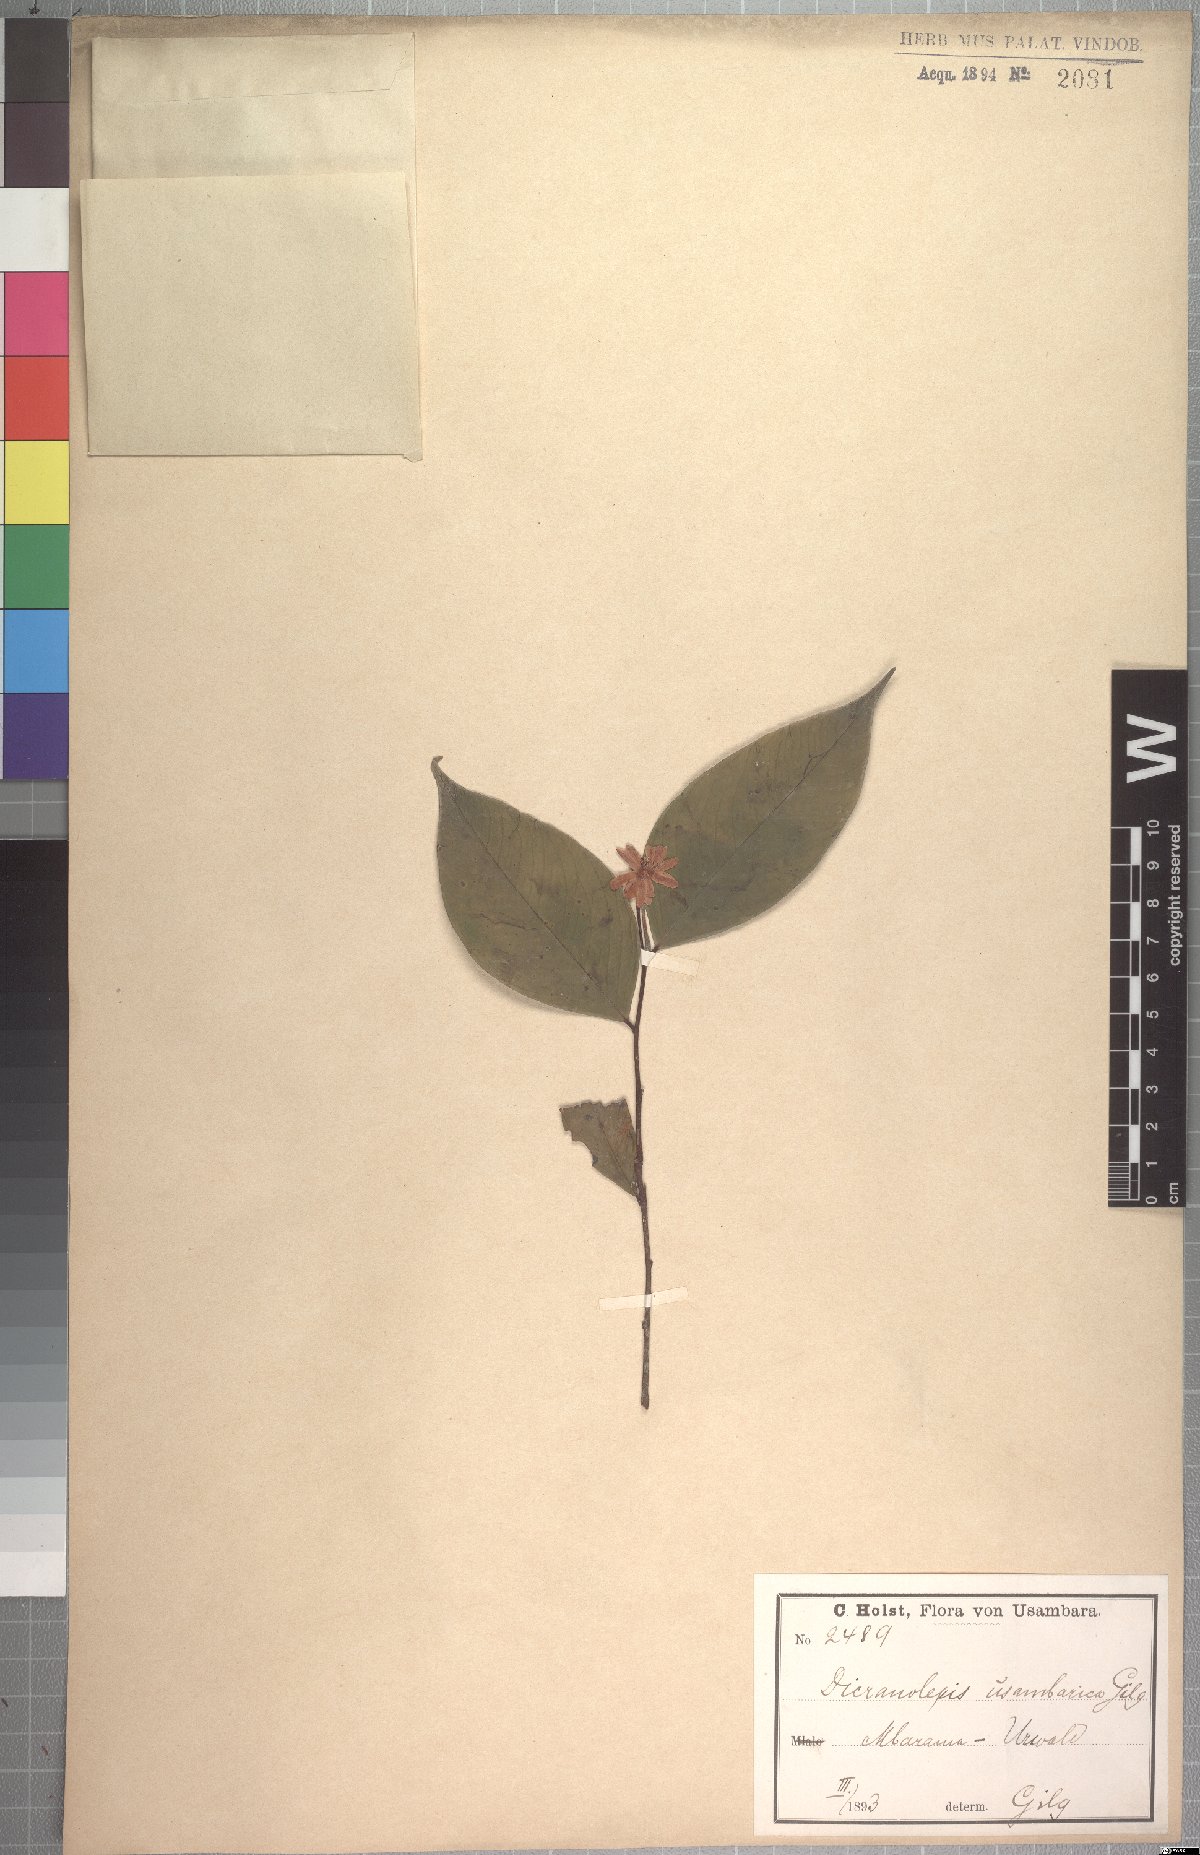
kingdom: Plantae
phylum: Tracheophyta
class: Magnoliopsida
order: Malvales
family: Thymelaeaceae
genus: Dicranolepis
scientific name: Dicranolepis usambarica
